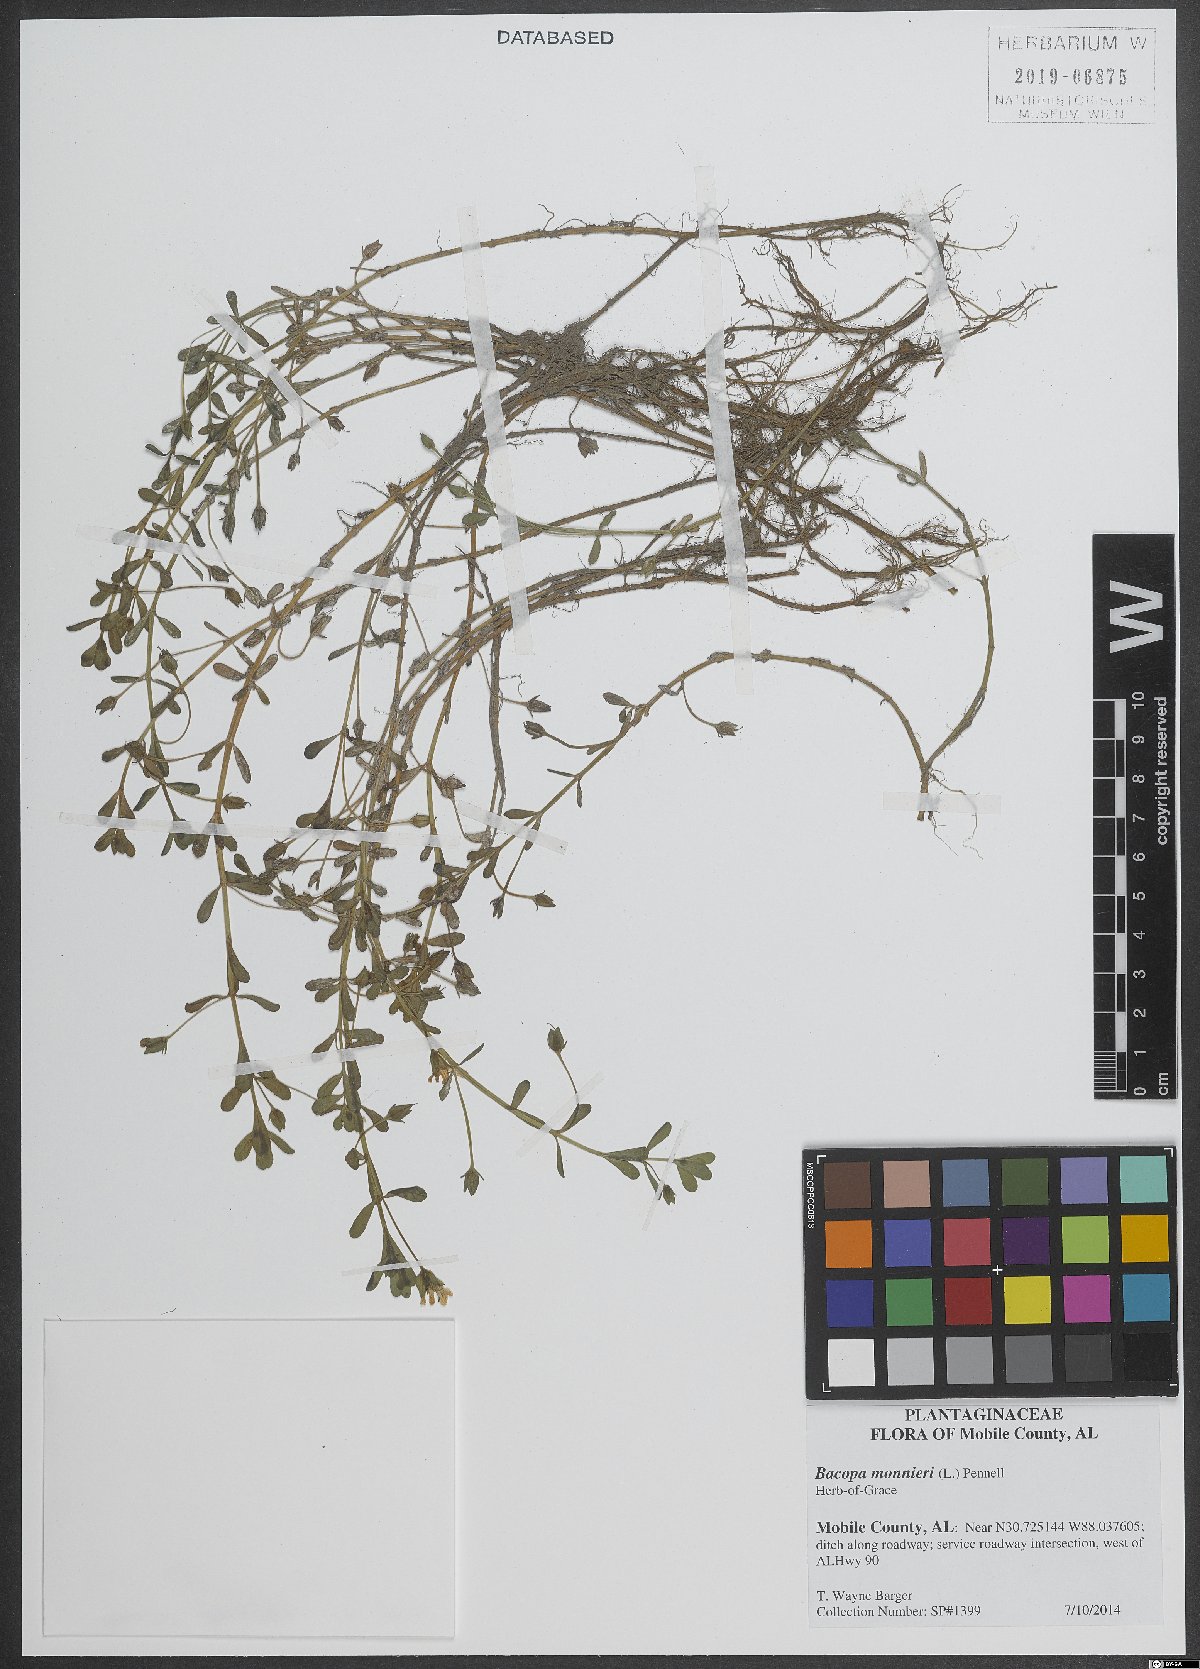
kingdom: Plantae
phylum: Tracheophyta
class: Magnoliopsida
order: Lamiales
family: Plantaginaceae
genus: Bacopa
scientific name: Bacopa monnieri
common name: Indian-pennywort
